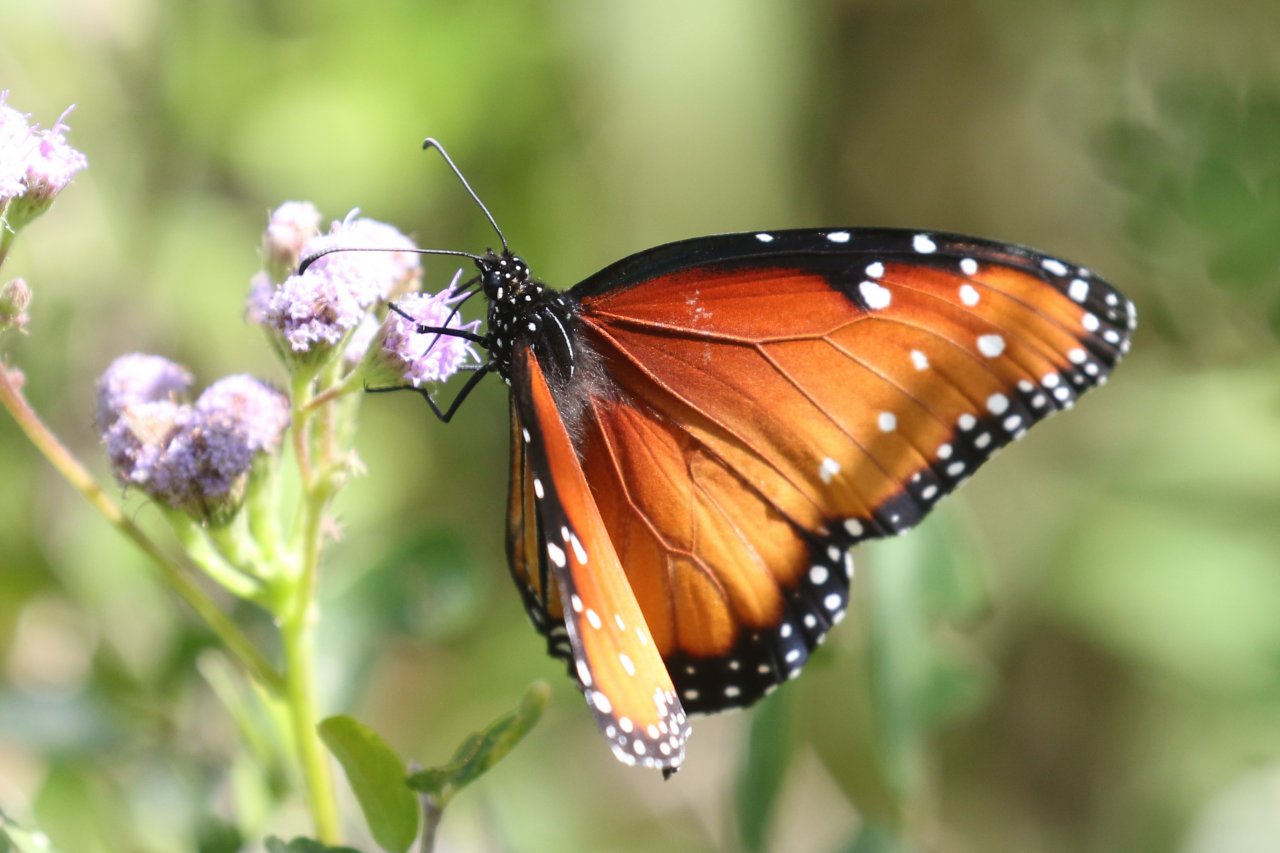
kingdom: Animalia
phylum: Arthropoda
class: Insecta
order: Lepidoptera
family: Nymphalidae
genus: Danaus
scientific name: Danaus gilippus
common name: Queen
